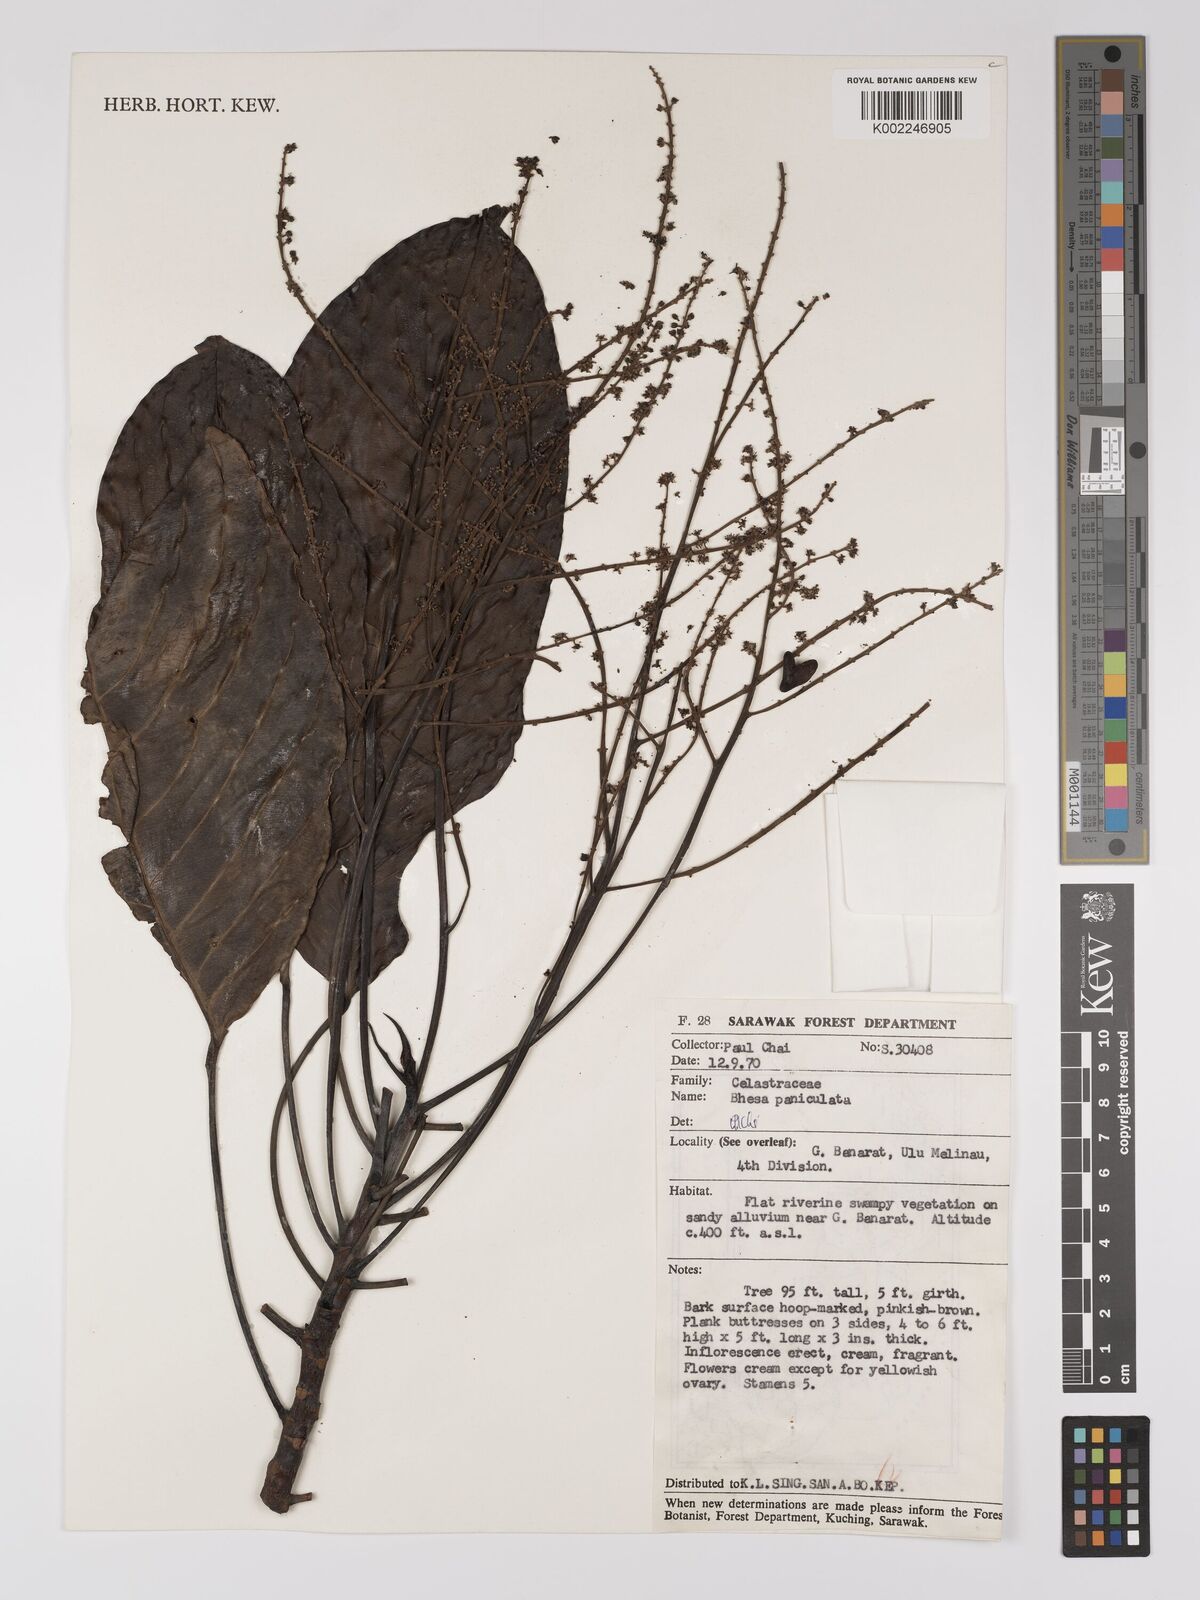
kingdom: Plantae
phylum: Tracheophyta
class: Magnoliopsida
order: Malpighiales
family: Centroplacaceae
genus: Bhesa
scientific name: Bhesa paniculata
